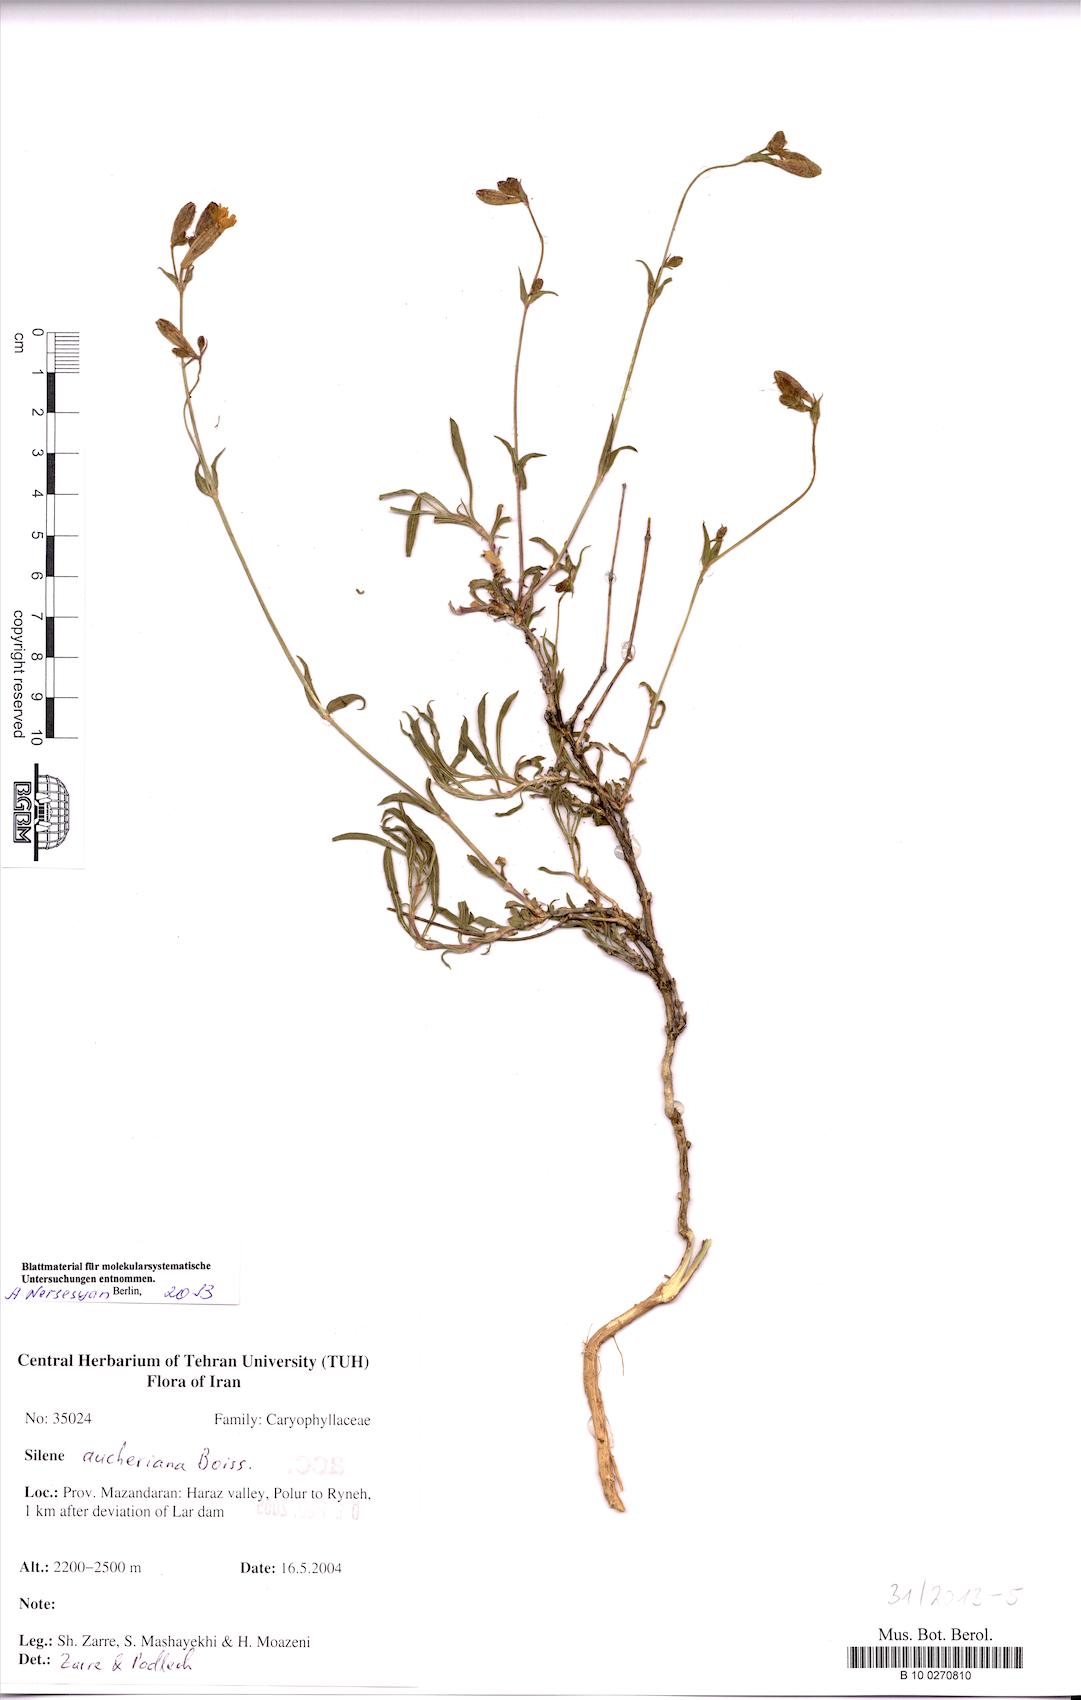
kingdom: Plantae
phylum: Tracheophyta
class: Magnoliopsida
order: Caryophyllales
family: Caryophyllaceae
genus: Silene
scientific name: Silene aucheriana
